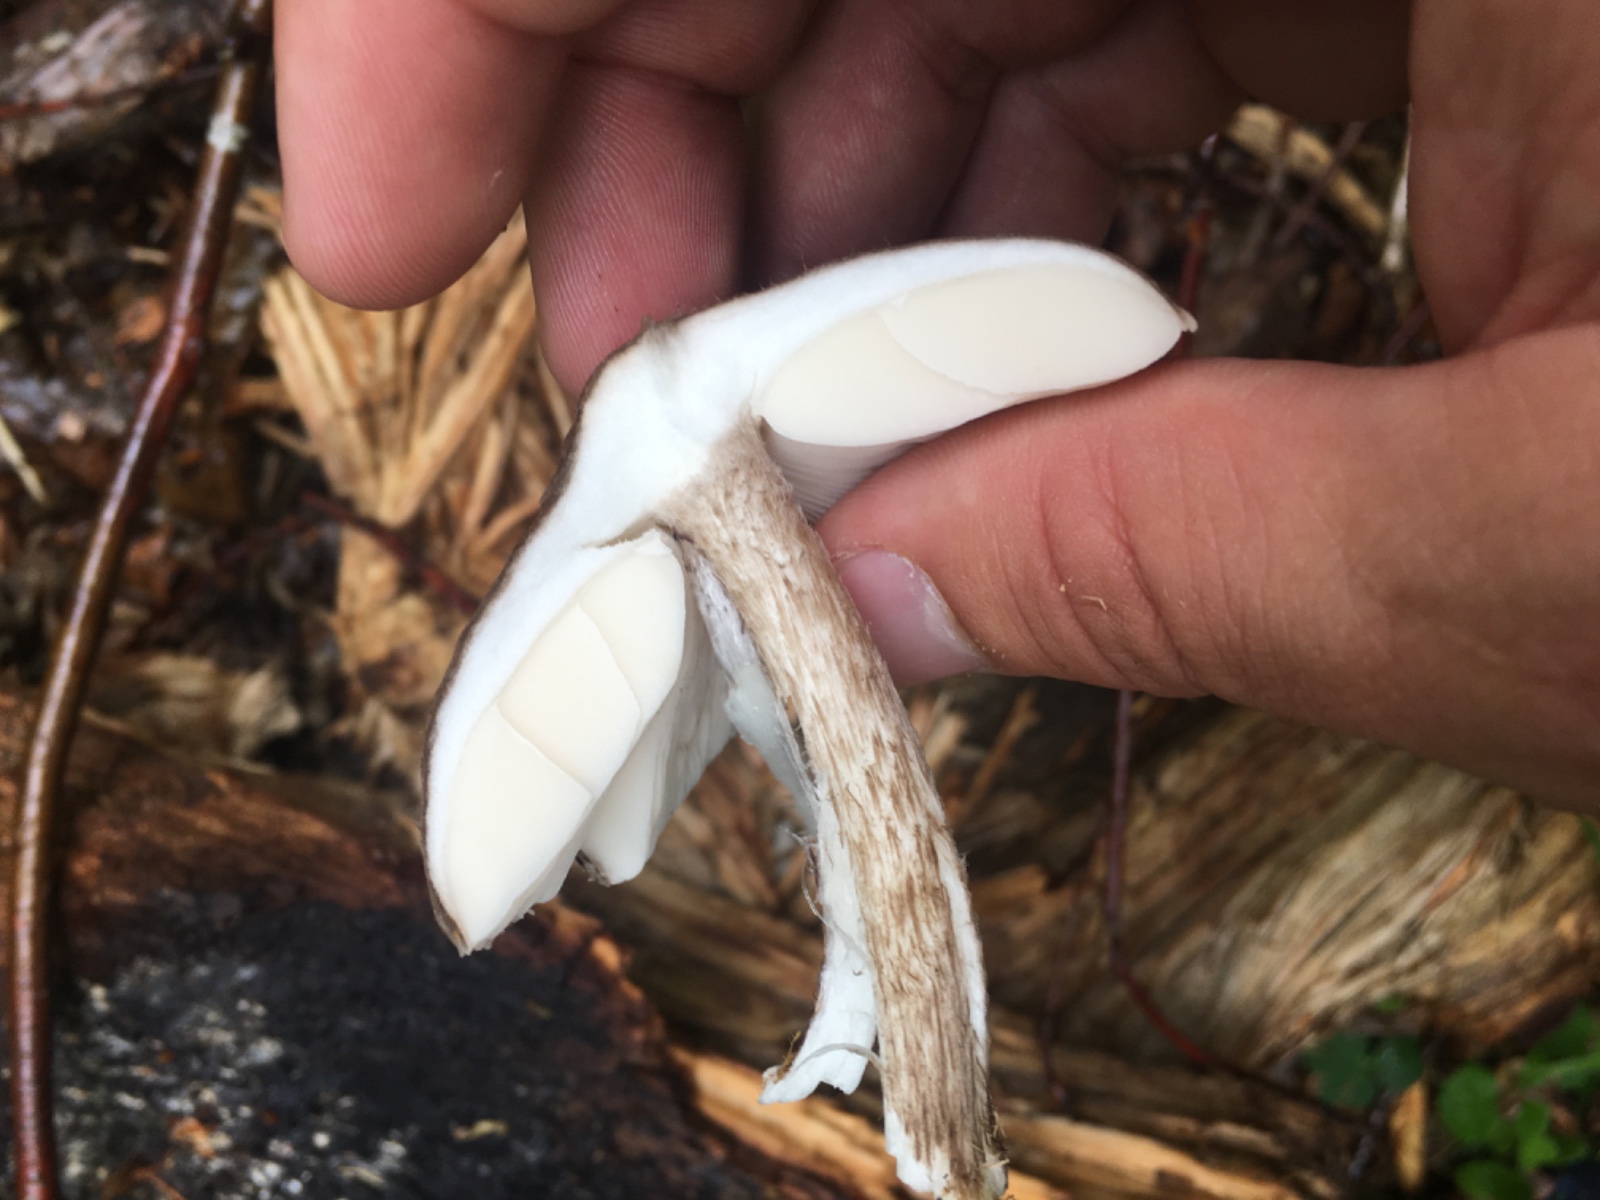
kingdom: Fungi
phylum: Basidiomycota
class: Agaricomycetes
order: Agaricales
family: Pluteaceae
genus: Pluteus
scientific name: Pluteus
